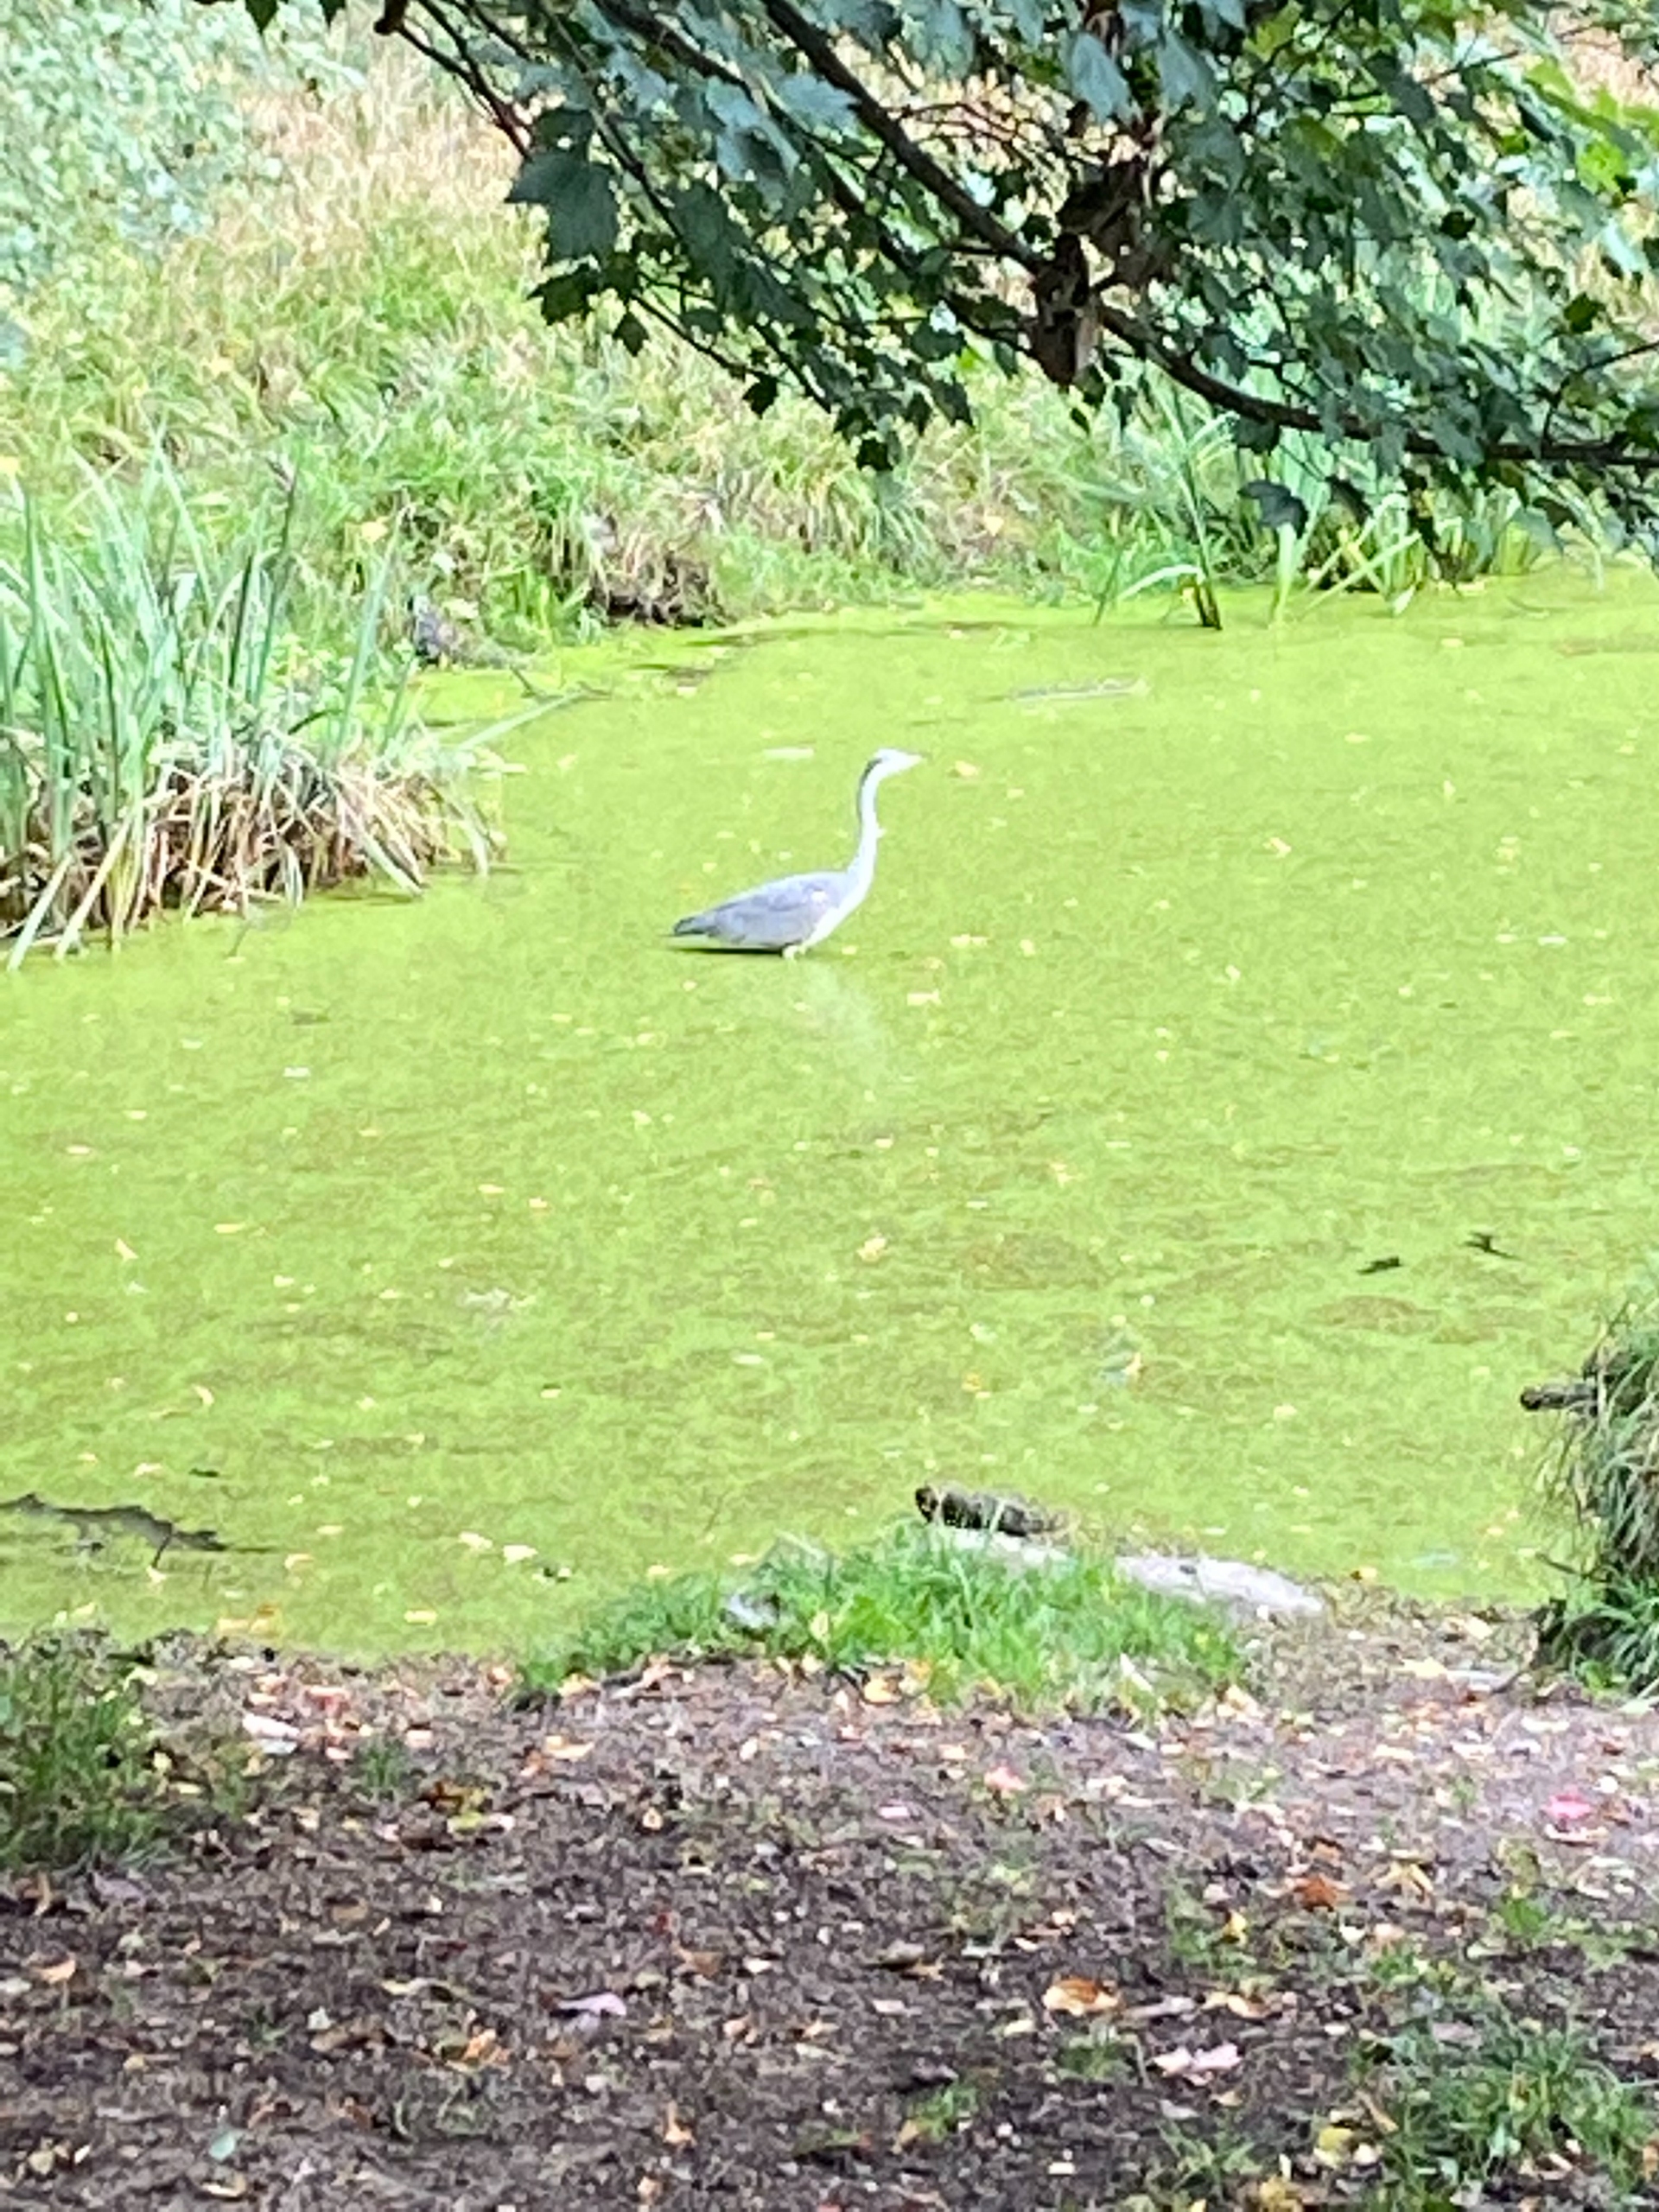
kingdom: Animalia
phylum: Chordata
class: Aves
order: Pelecaniformes
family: Ardeidae
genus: Ardea
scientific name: Ardea cinerea
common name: Fiskehejre
